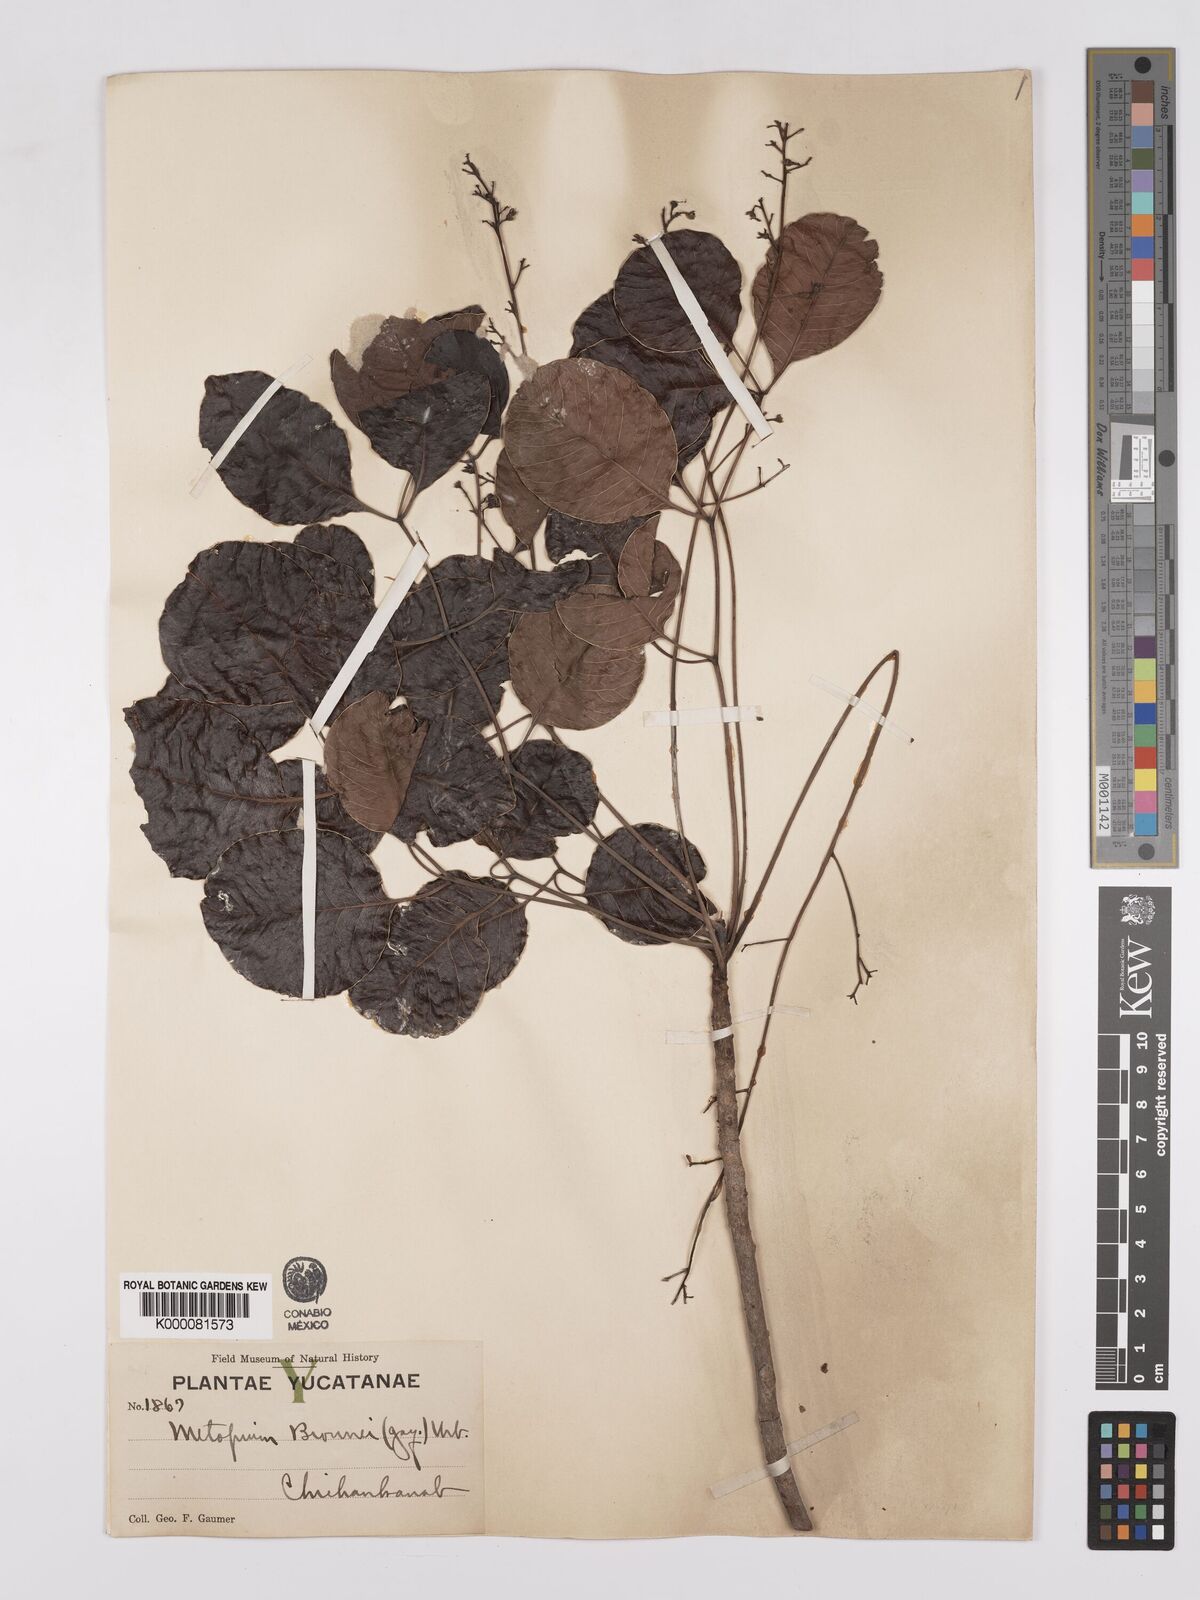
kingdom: Plantae
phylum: Tracheophyta
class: Magnoliopsida
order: Sapindales
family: Anacardiaceae
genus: Metopium
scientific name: Metopium brownei
